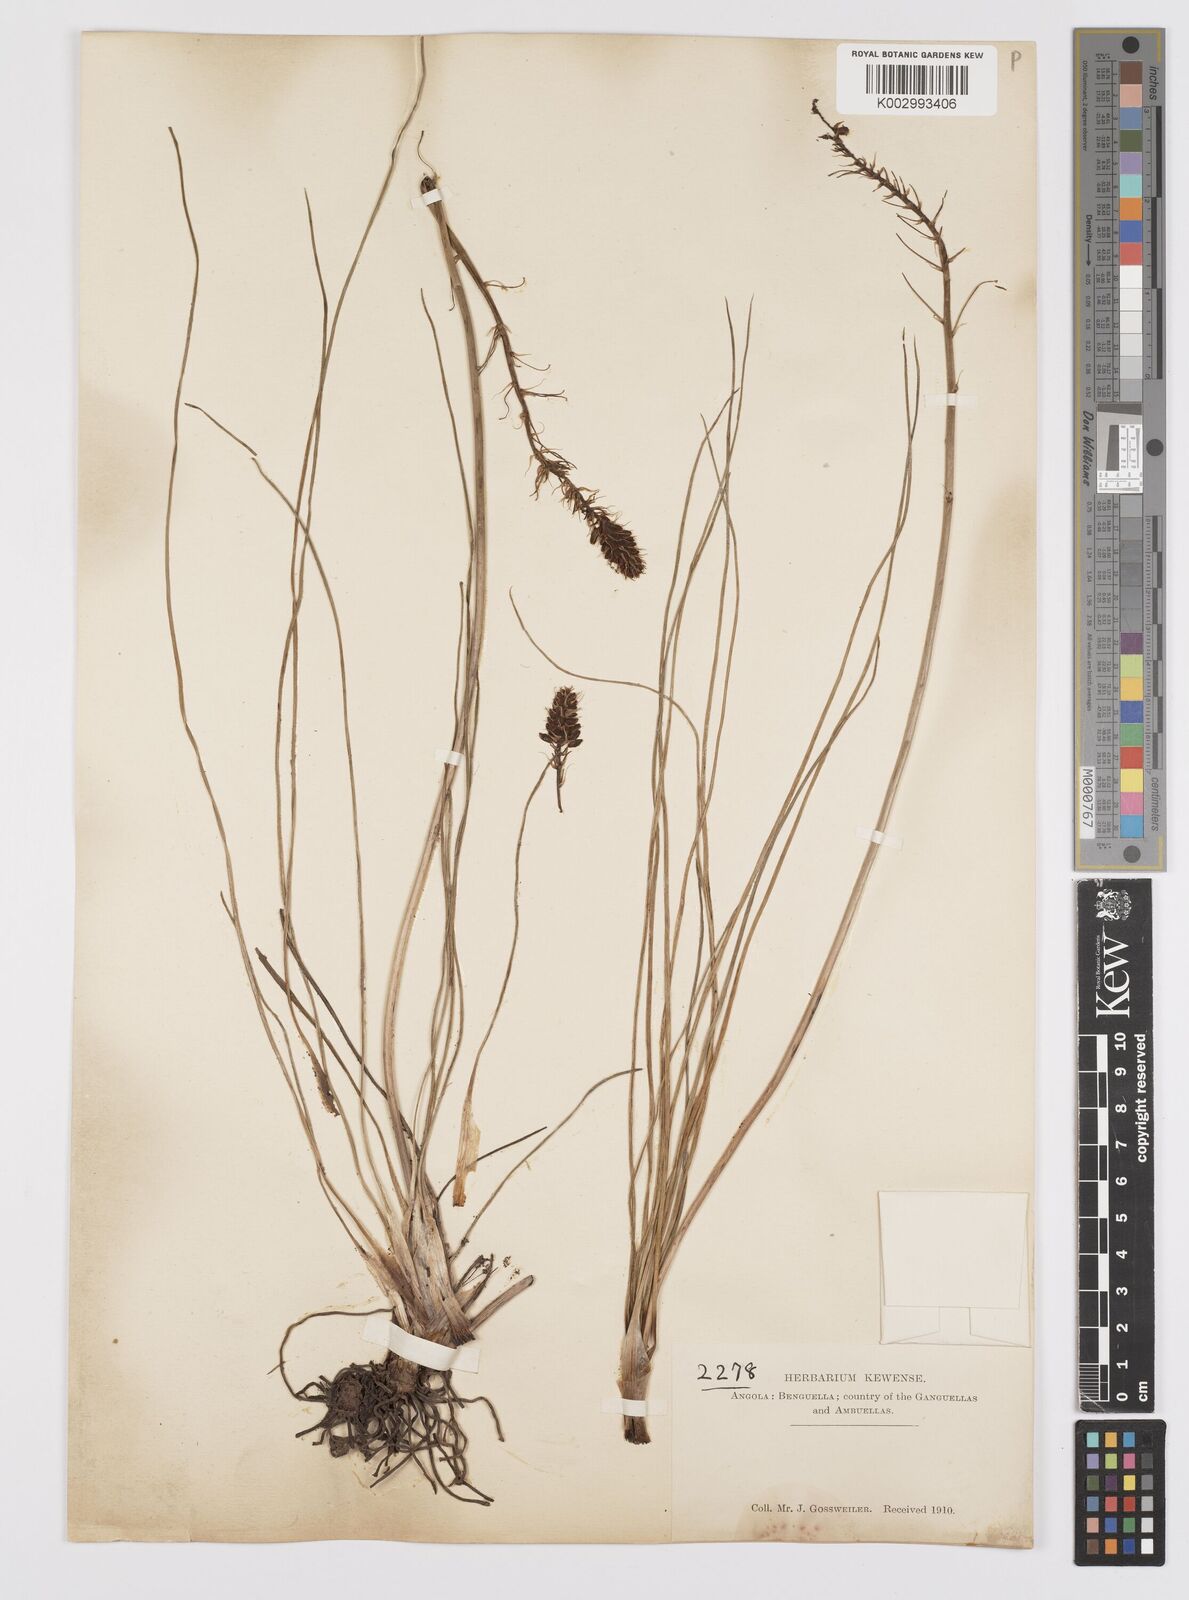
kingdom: Plantae
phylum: Tracheophyta
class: Liliopsida
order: Asparagales
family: Asphodelaceae
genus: Bulbine
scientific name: Bulbine abyssinica
